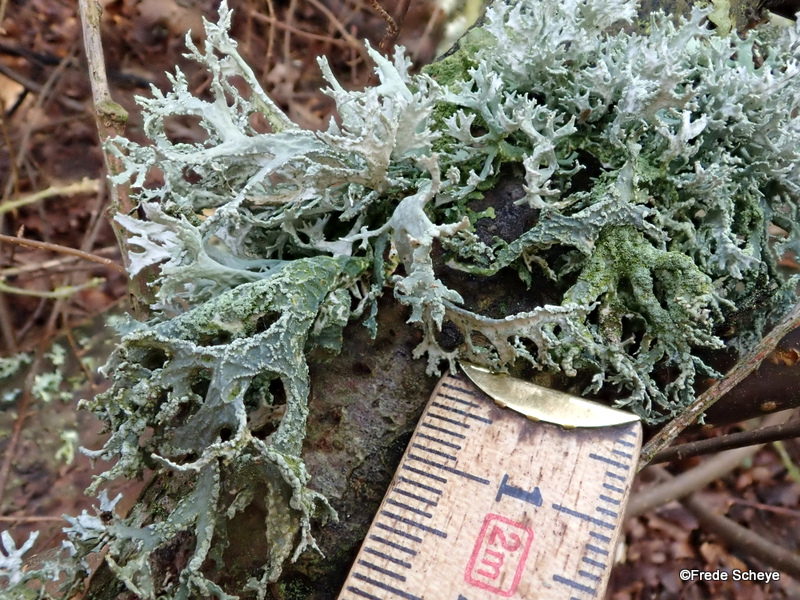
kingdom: Fungi
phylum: Ascomycota
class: Lecanoromycetes
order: Lecanorales
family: Parmeliaceae
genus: Evernia
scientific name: Evernia prunastri
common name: almindelig slåenlav
